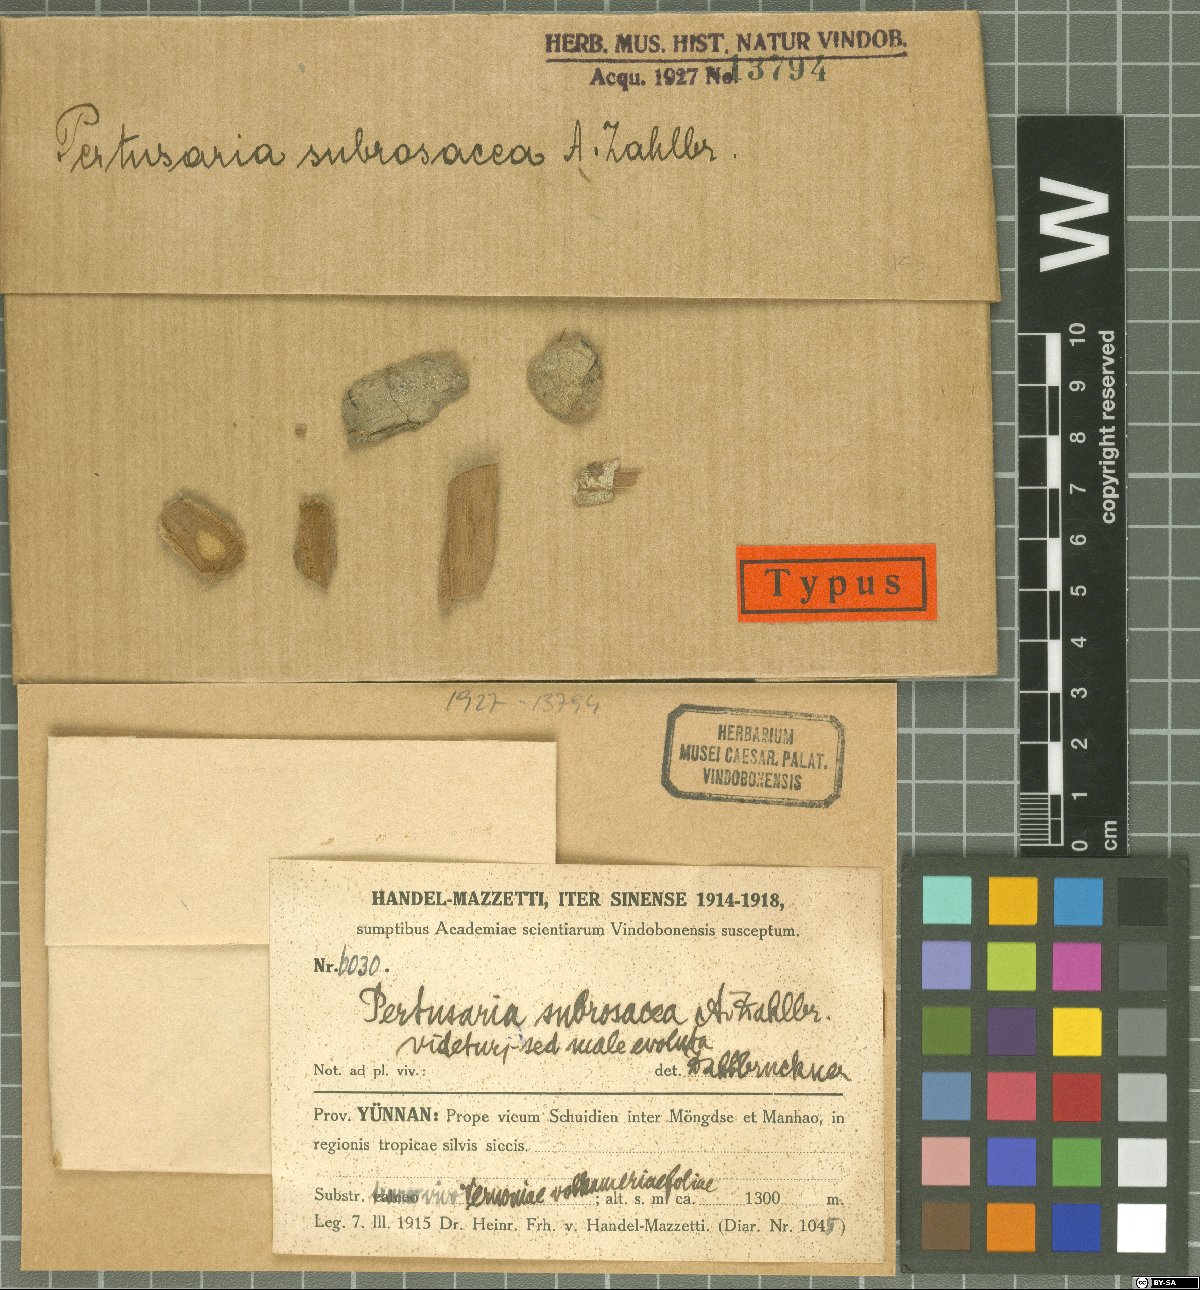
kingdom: Fungi
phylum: Ascomycota
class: Lecanoromycetes
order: Pertusariales
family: Pertusariaceae
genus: Pertusaria
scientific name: Pertusaria
